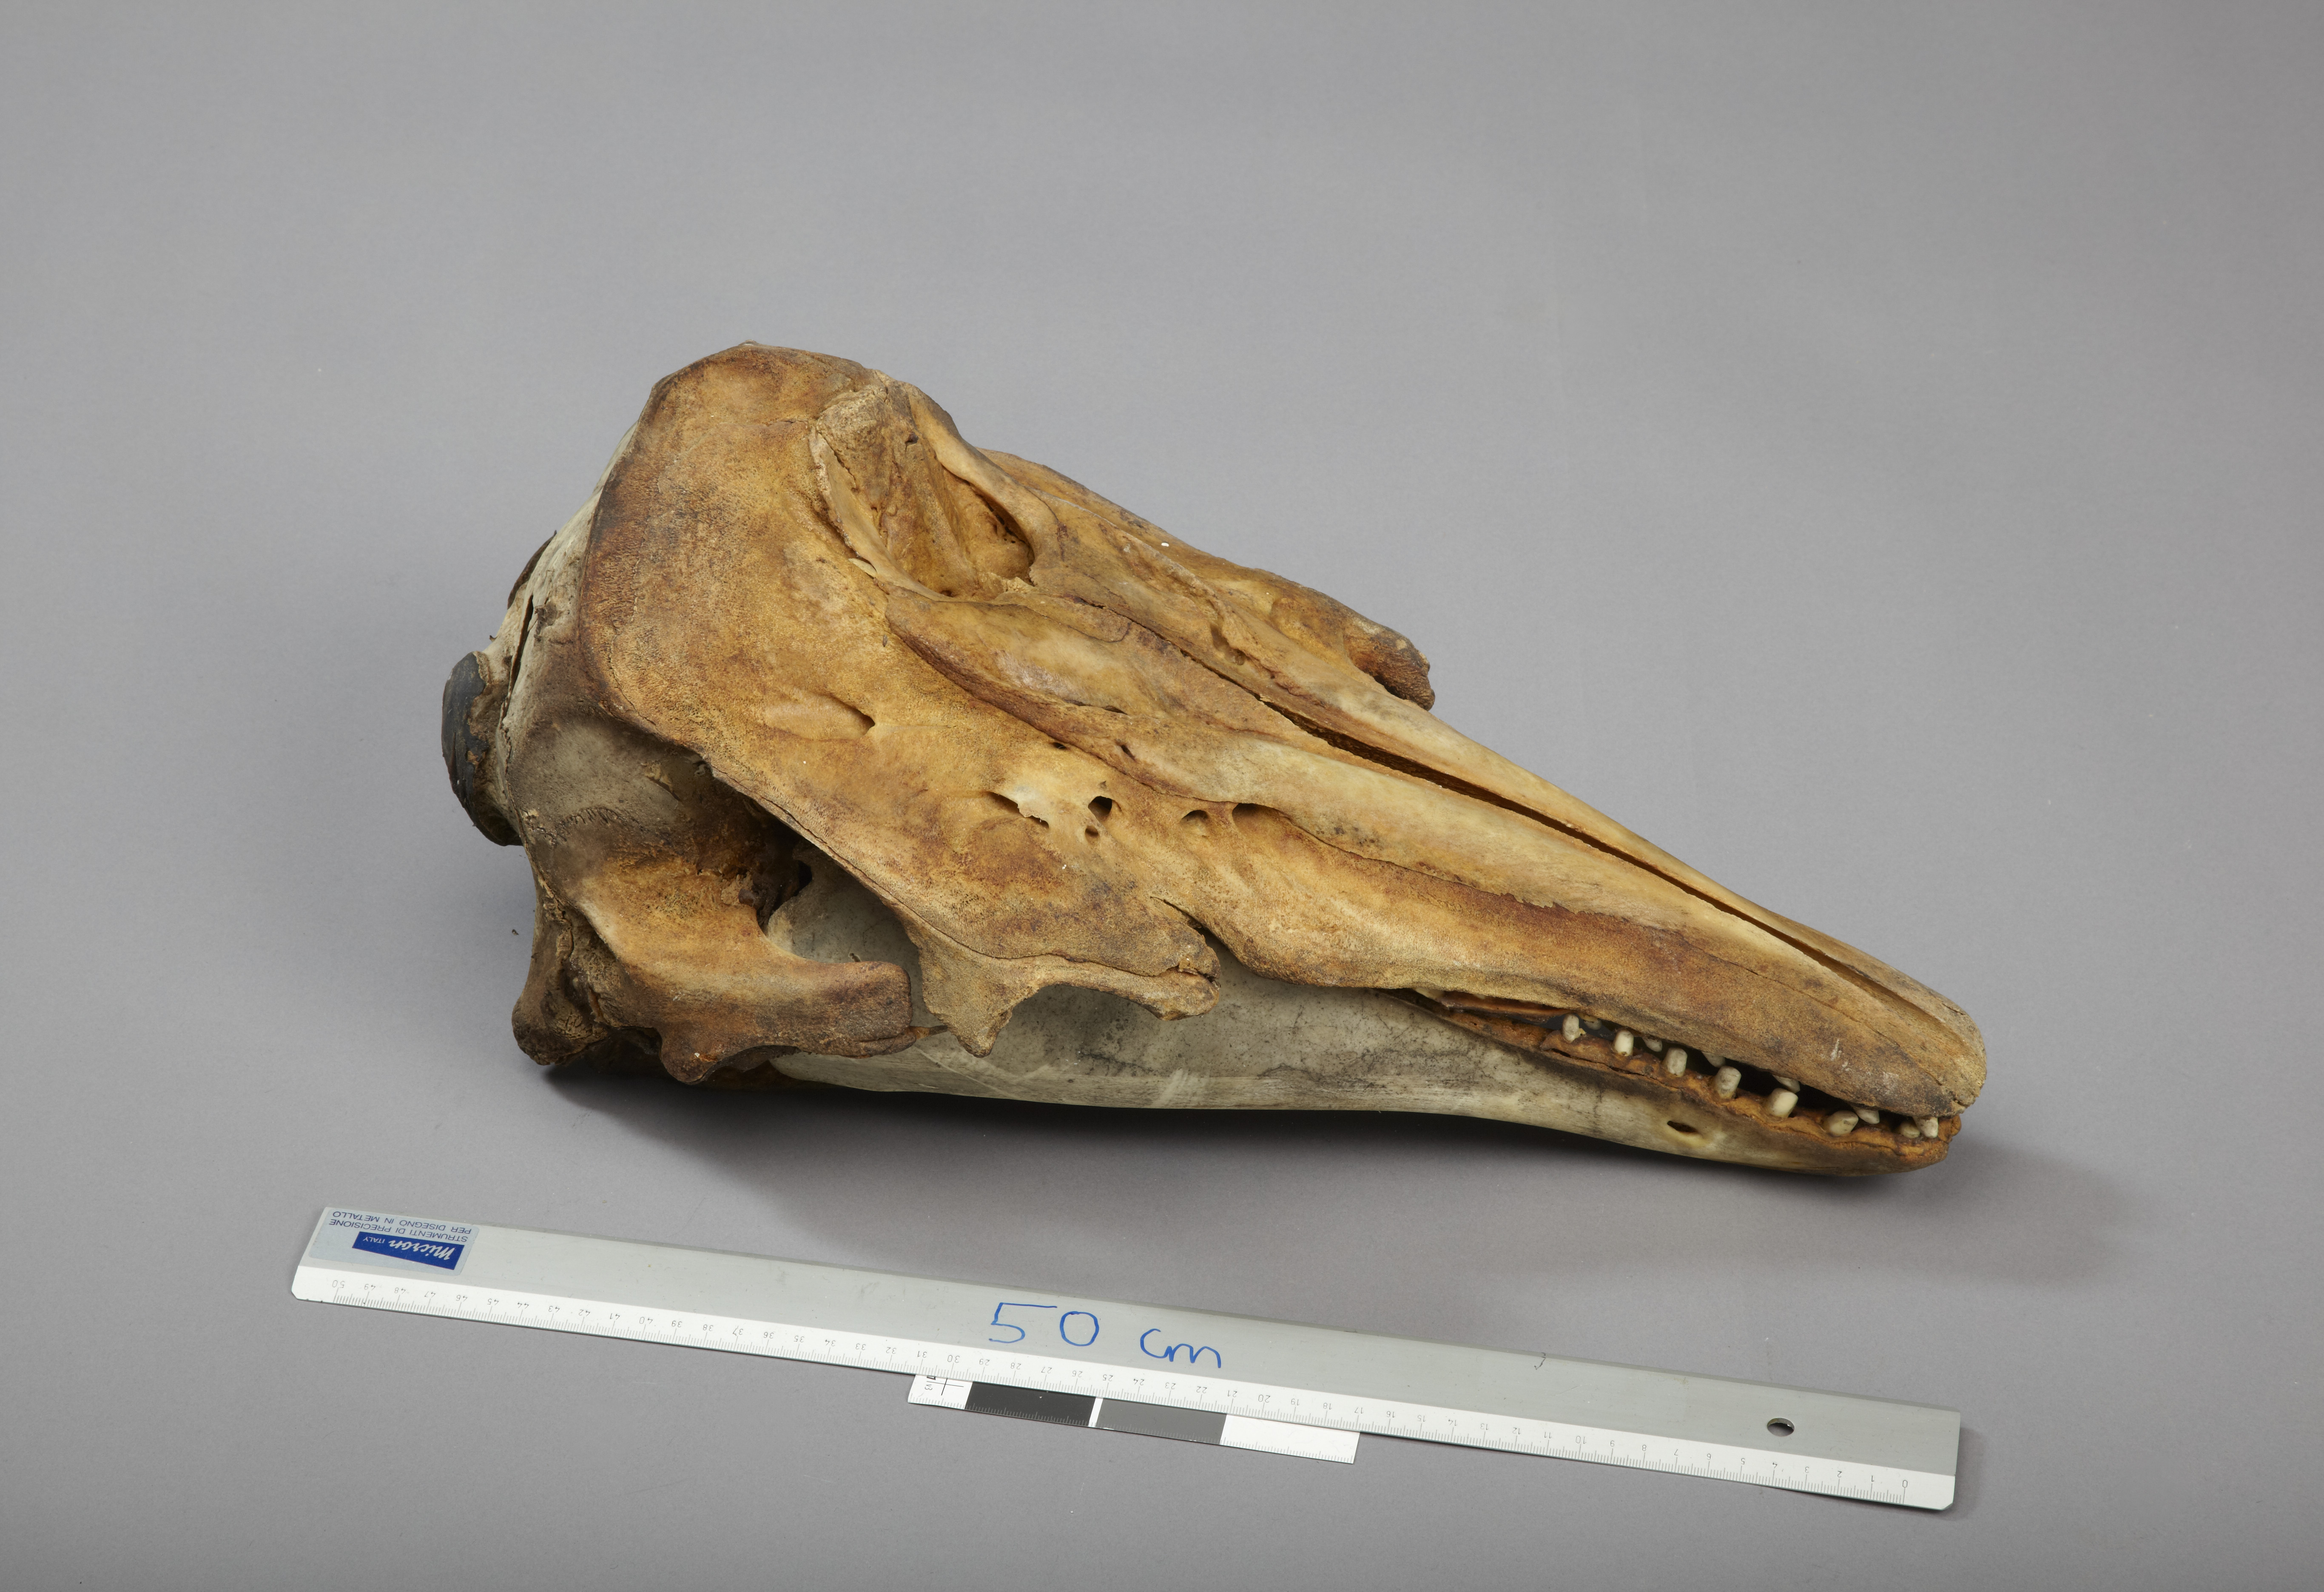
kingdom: Animalia
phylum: Chordata
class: Mammalia
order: Cetacea
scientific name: Cetacea
